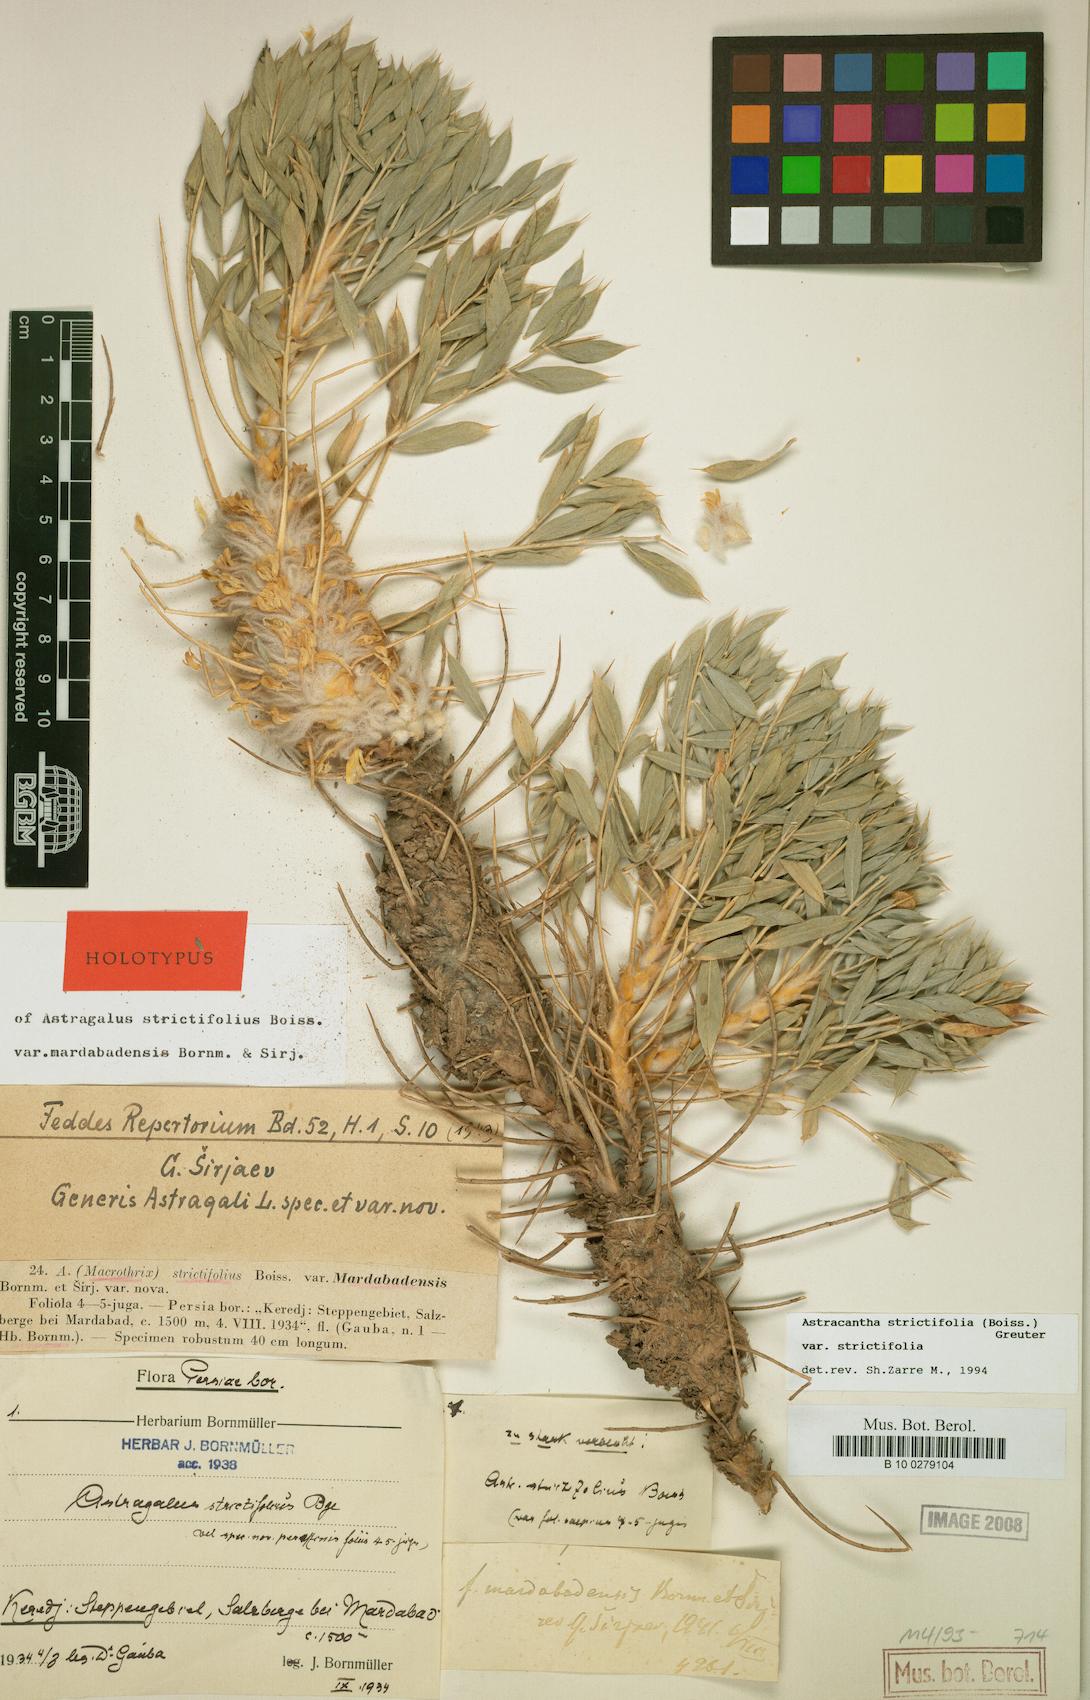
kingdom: Plantae
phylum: Tracheophyta
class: Magnoliopsida
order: Fabales
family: Fabaceae
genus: Astragalus
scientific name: Astragalus strictifolius
